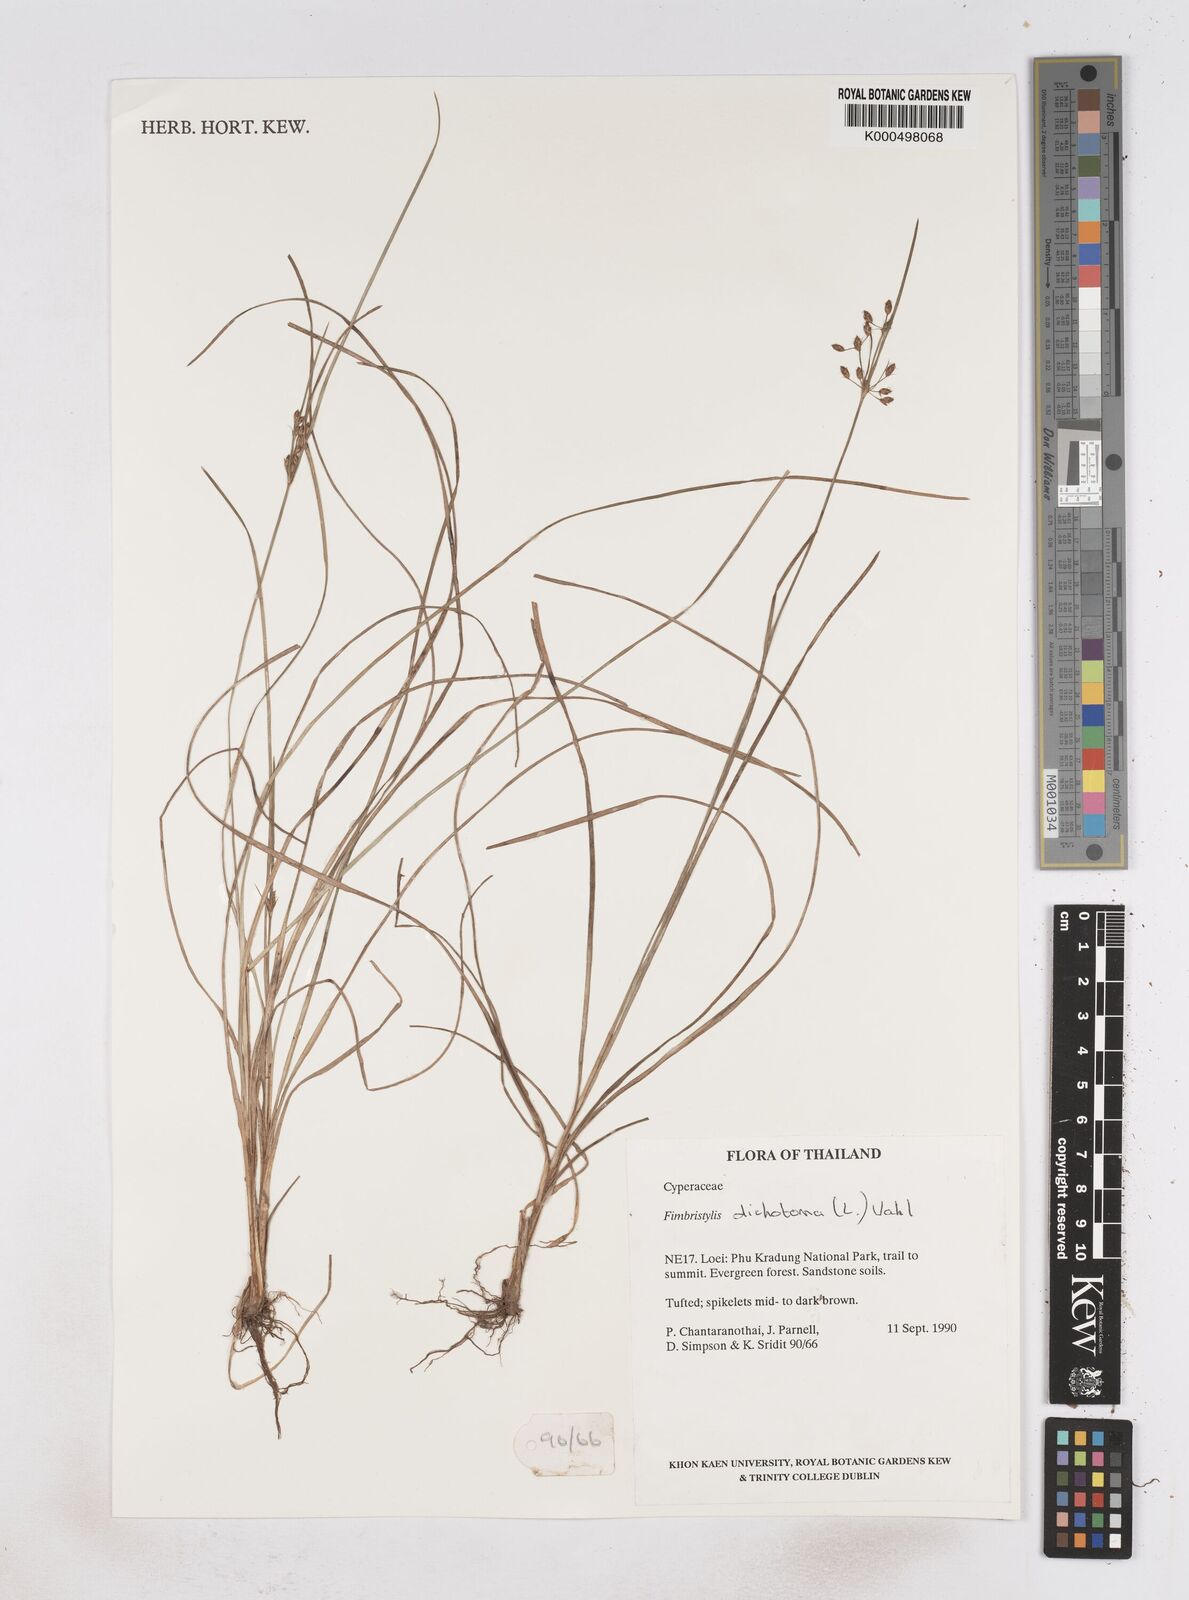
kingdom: Plantae
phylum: Tracheophyta
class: Liliopsida
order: Poales
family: Cyperaceae
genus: Fimbristylis
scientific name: Fimbristylis dichotoma
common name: Forked fimbry
